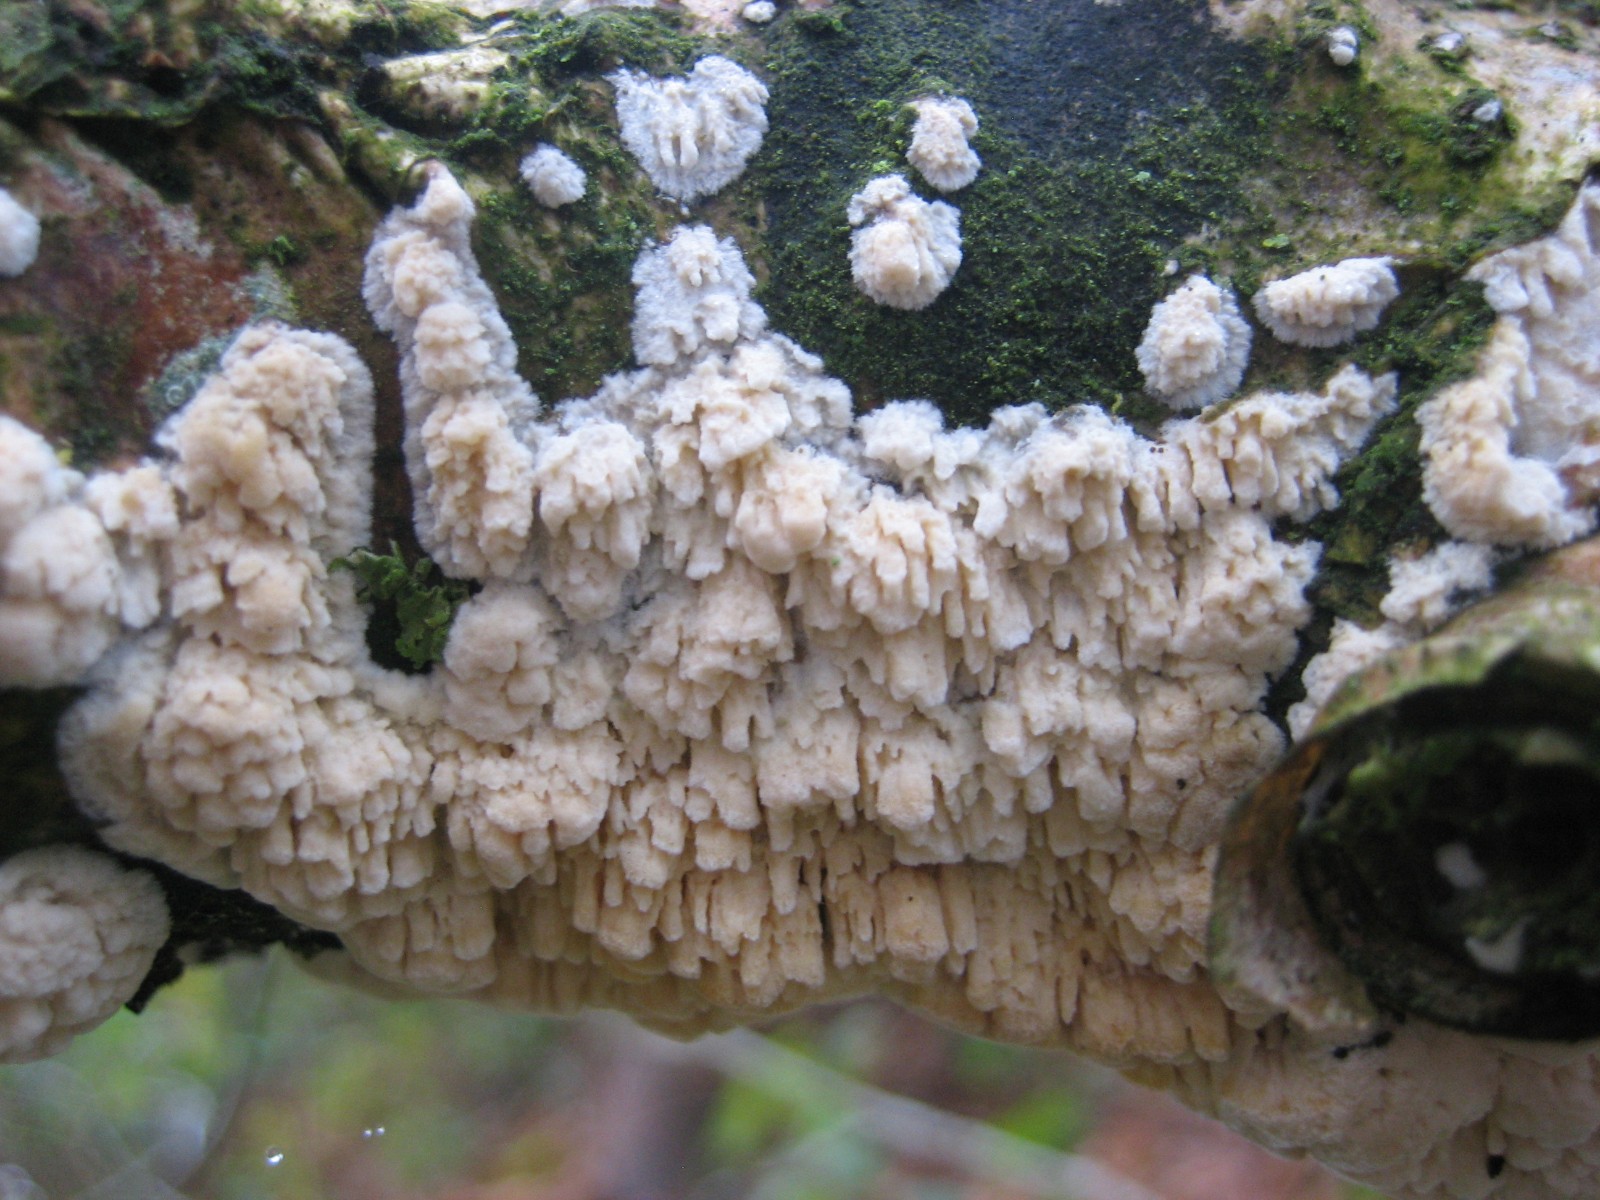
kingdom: Fungi
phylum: Basidiomycota
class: Agaricomycetes
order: Hymenochaetales
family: Schizoporaceae
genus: Xylodon
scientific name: Xylodon radula
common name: grovtandet kalkskind
